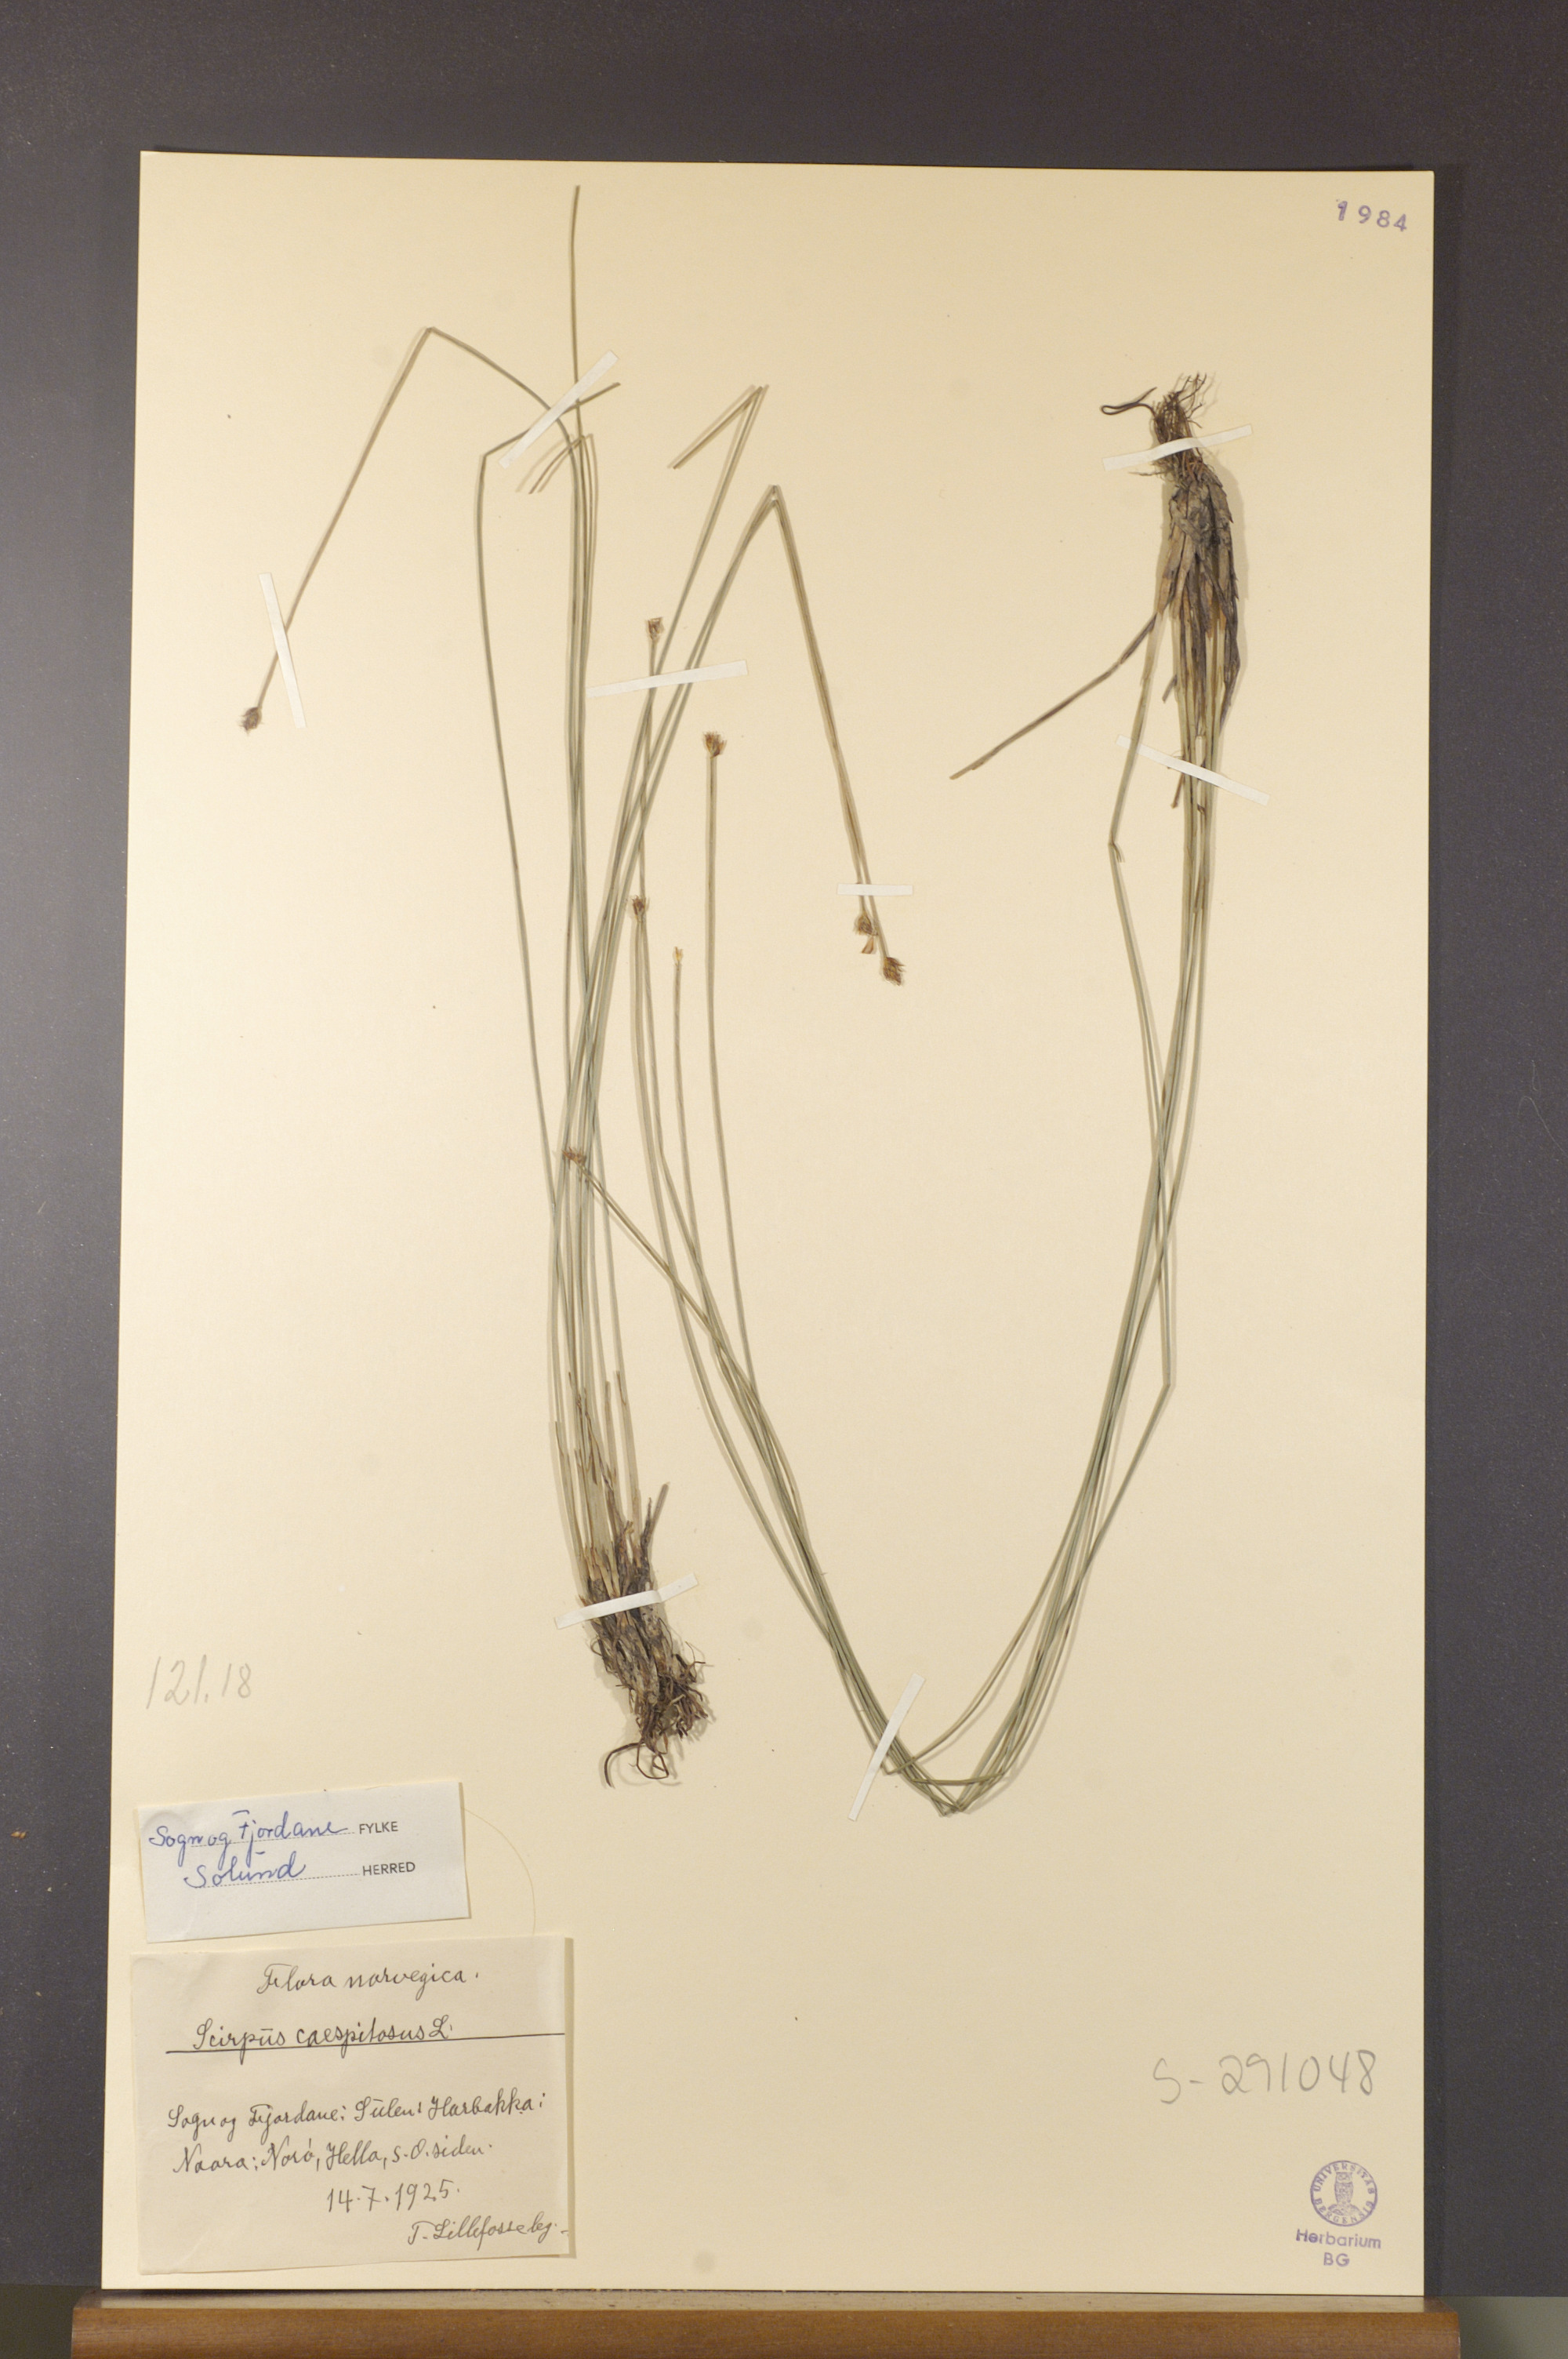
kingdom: Plantae
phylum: Tracheophyta
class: Liliopsida
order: Poales
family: Cyperaceae
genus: Trichophorum
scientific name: Trichophorum cespitosum
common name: Cespitose bulrush
